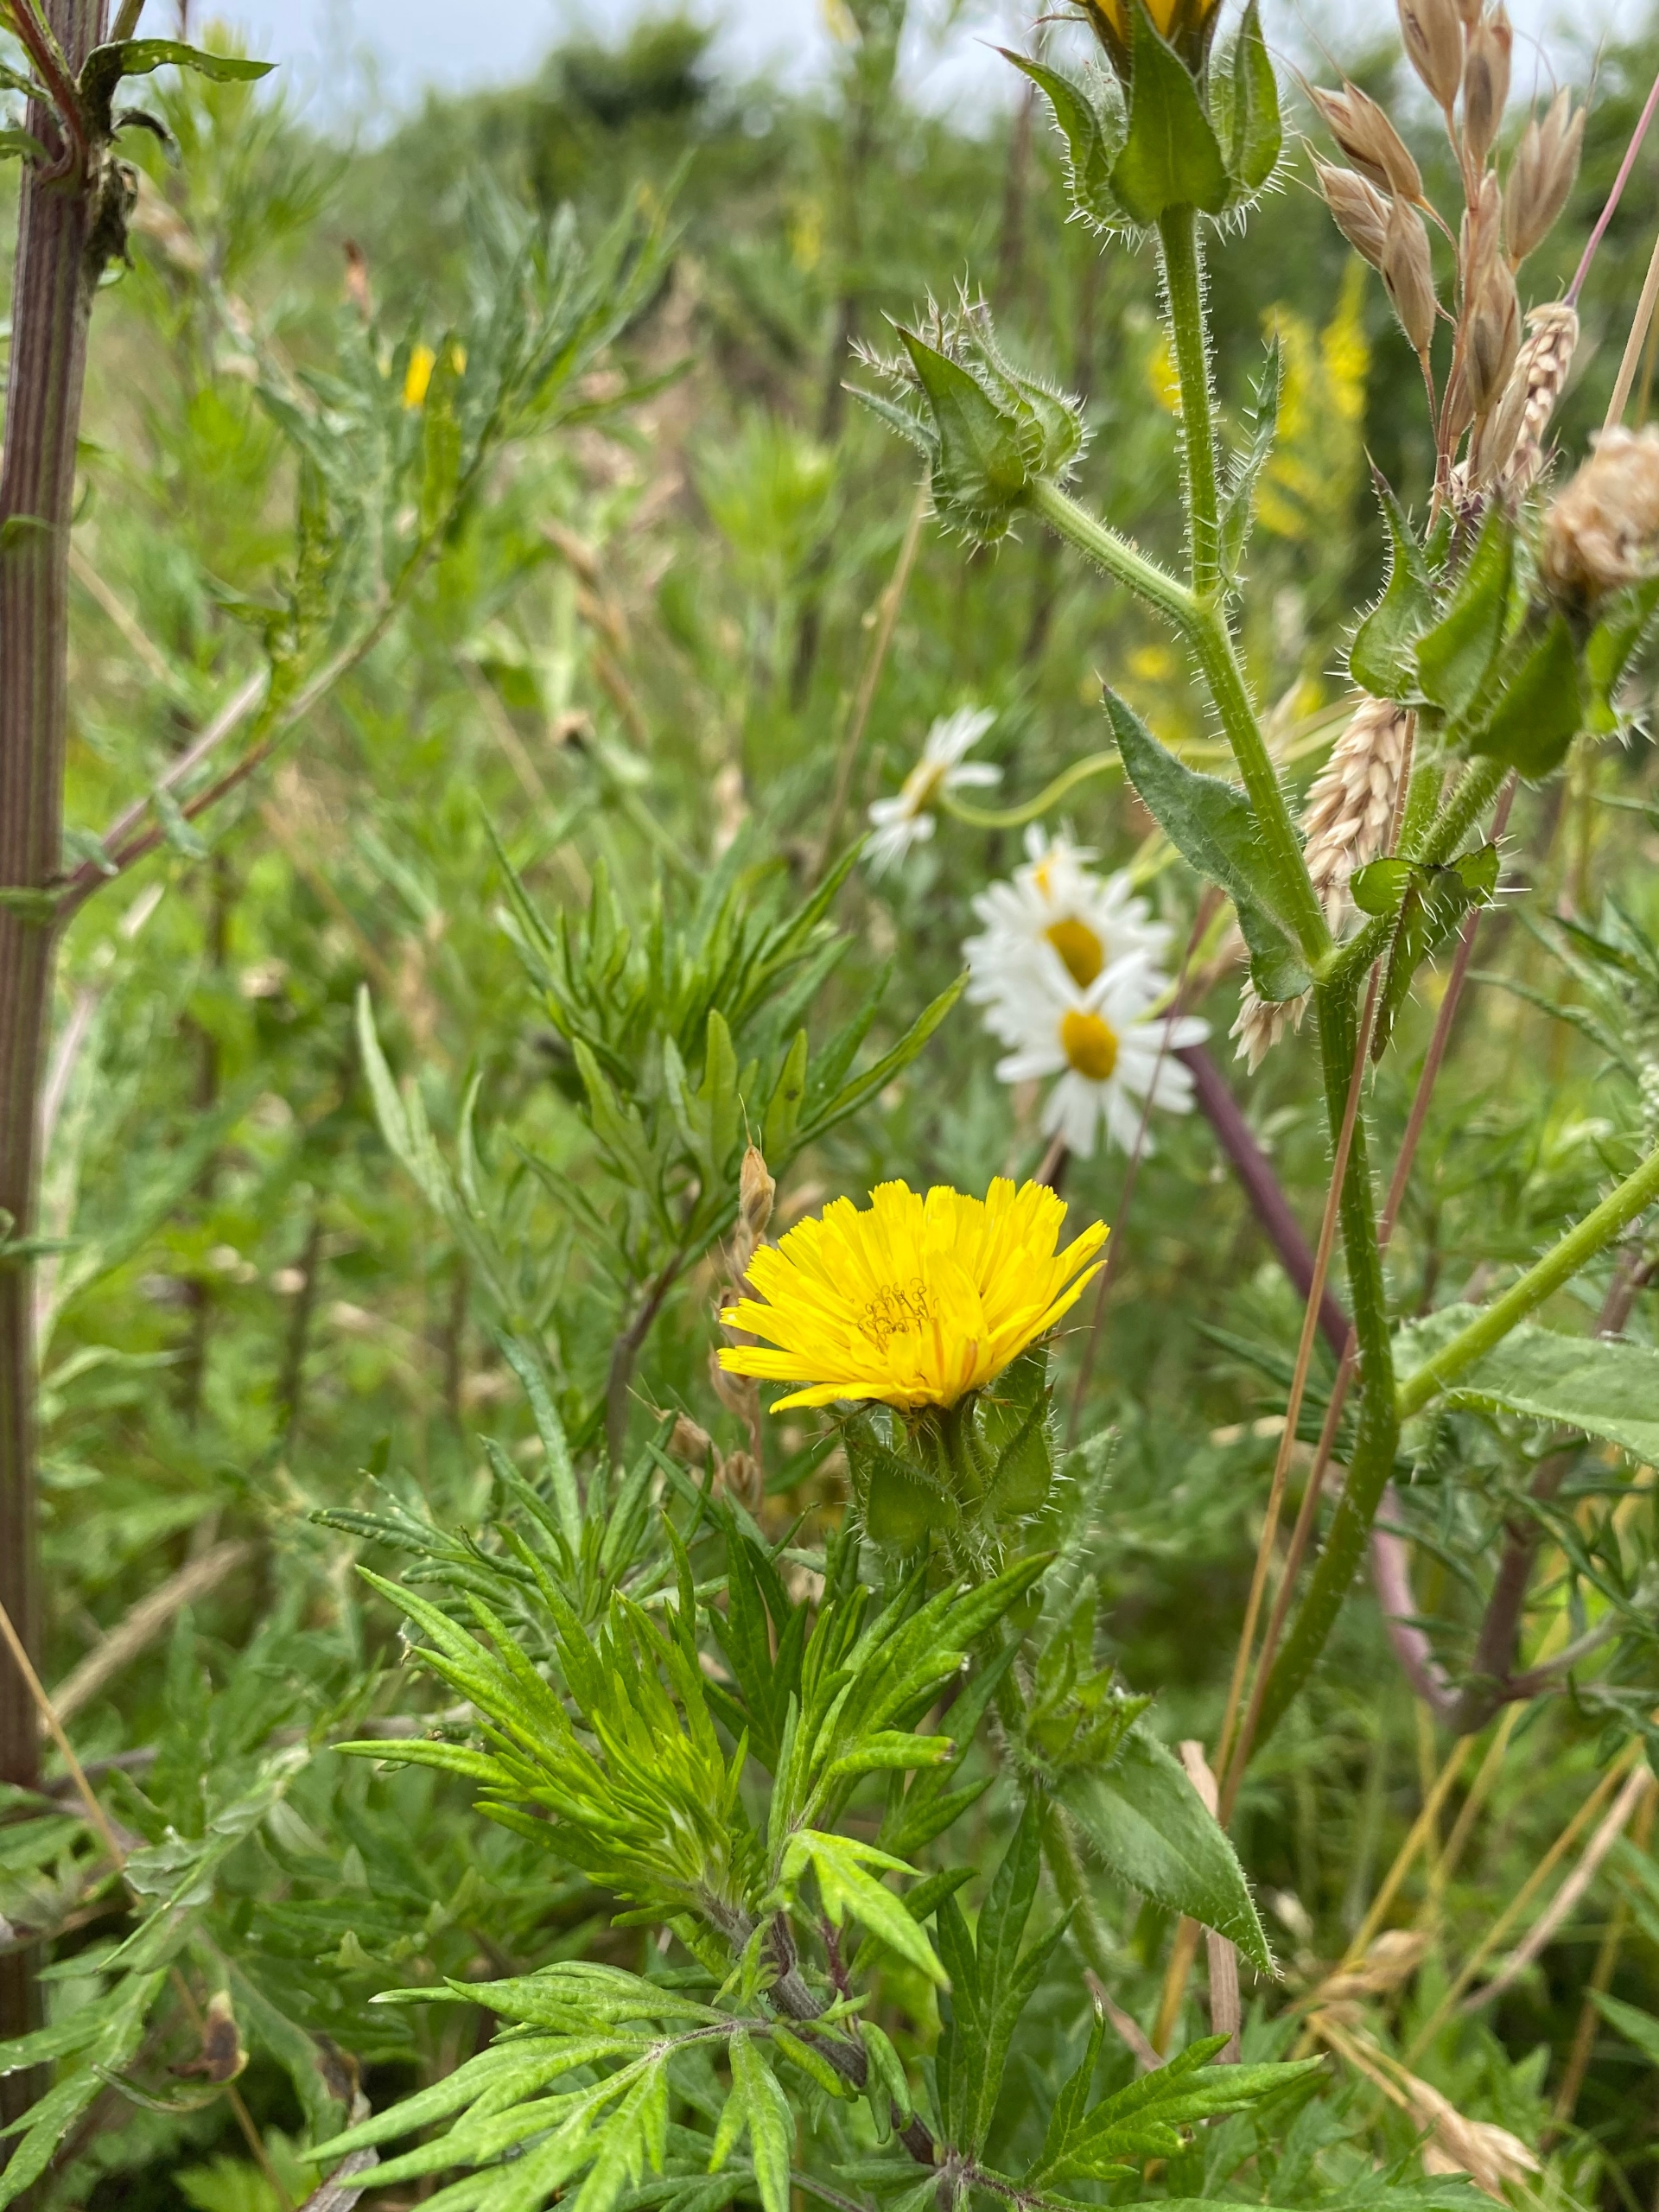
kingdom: Plantae
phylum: Tracheophyta
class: Magnoliopsida
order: Asterales
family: Asteraceae
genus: Helminthotheca
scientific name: Helminthotheca echioides
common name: Vingekurv
